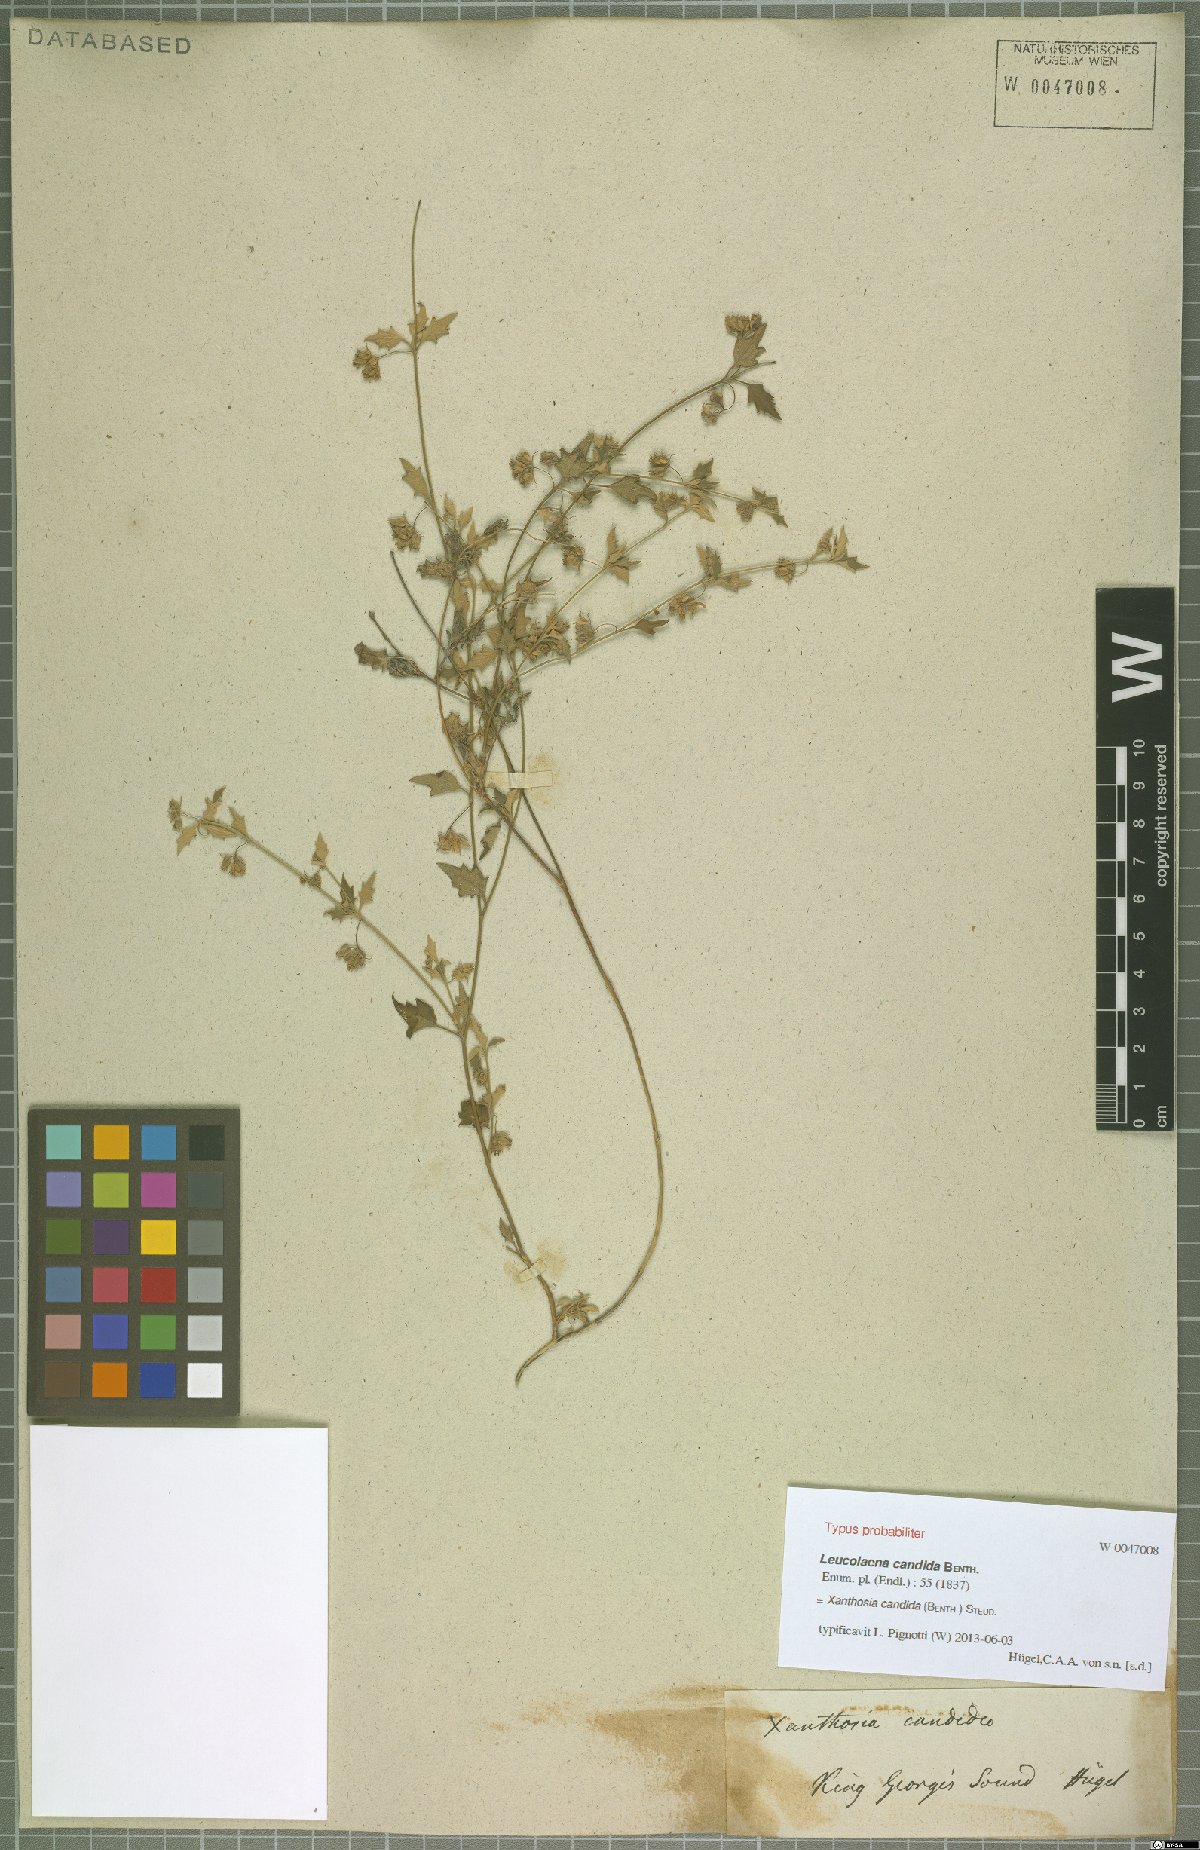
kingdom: Plantae
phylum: Tracheophyta
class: Magnoliopsida
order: Apiales
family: Apiaceae
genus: Xanthosia
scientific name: Xanthosia candida
